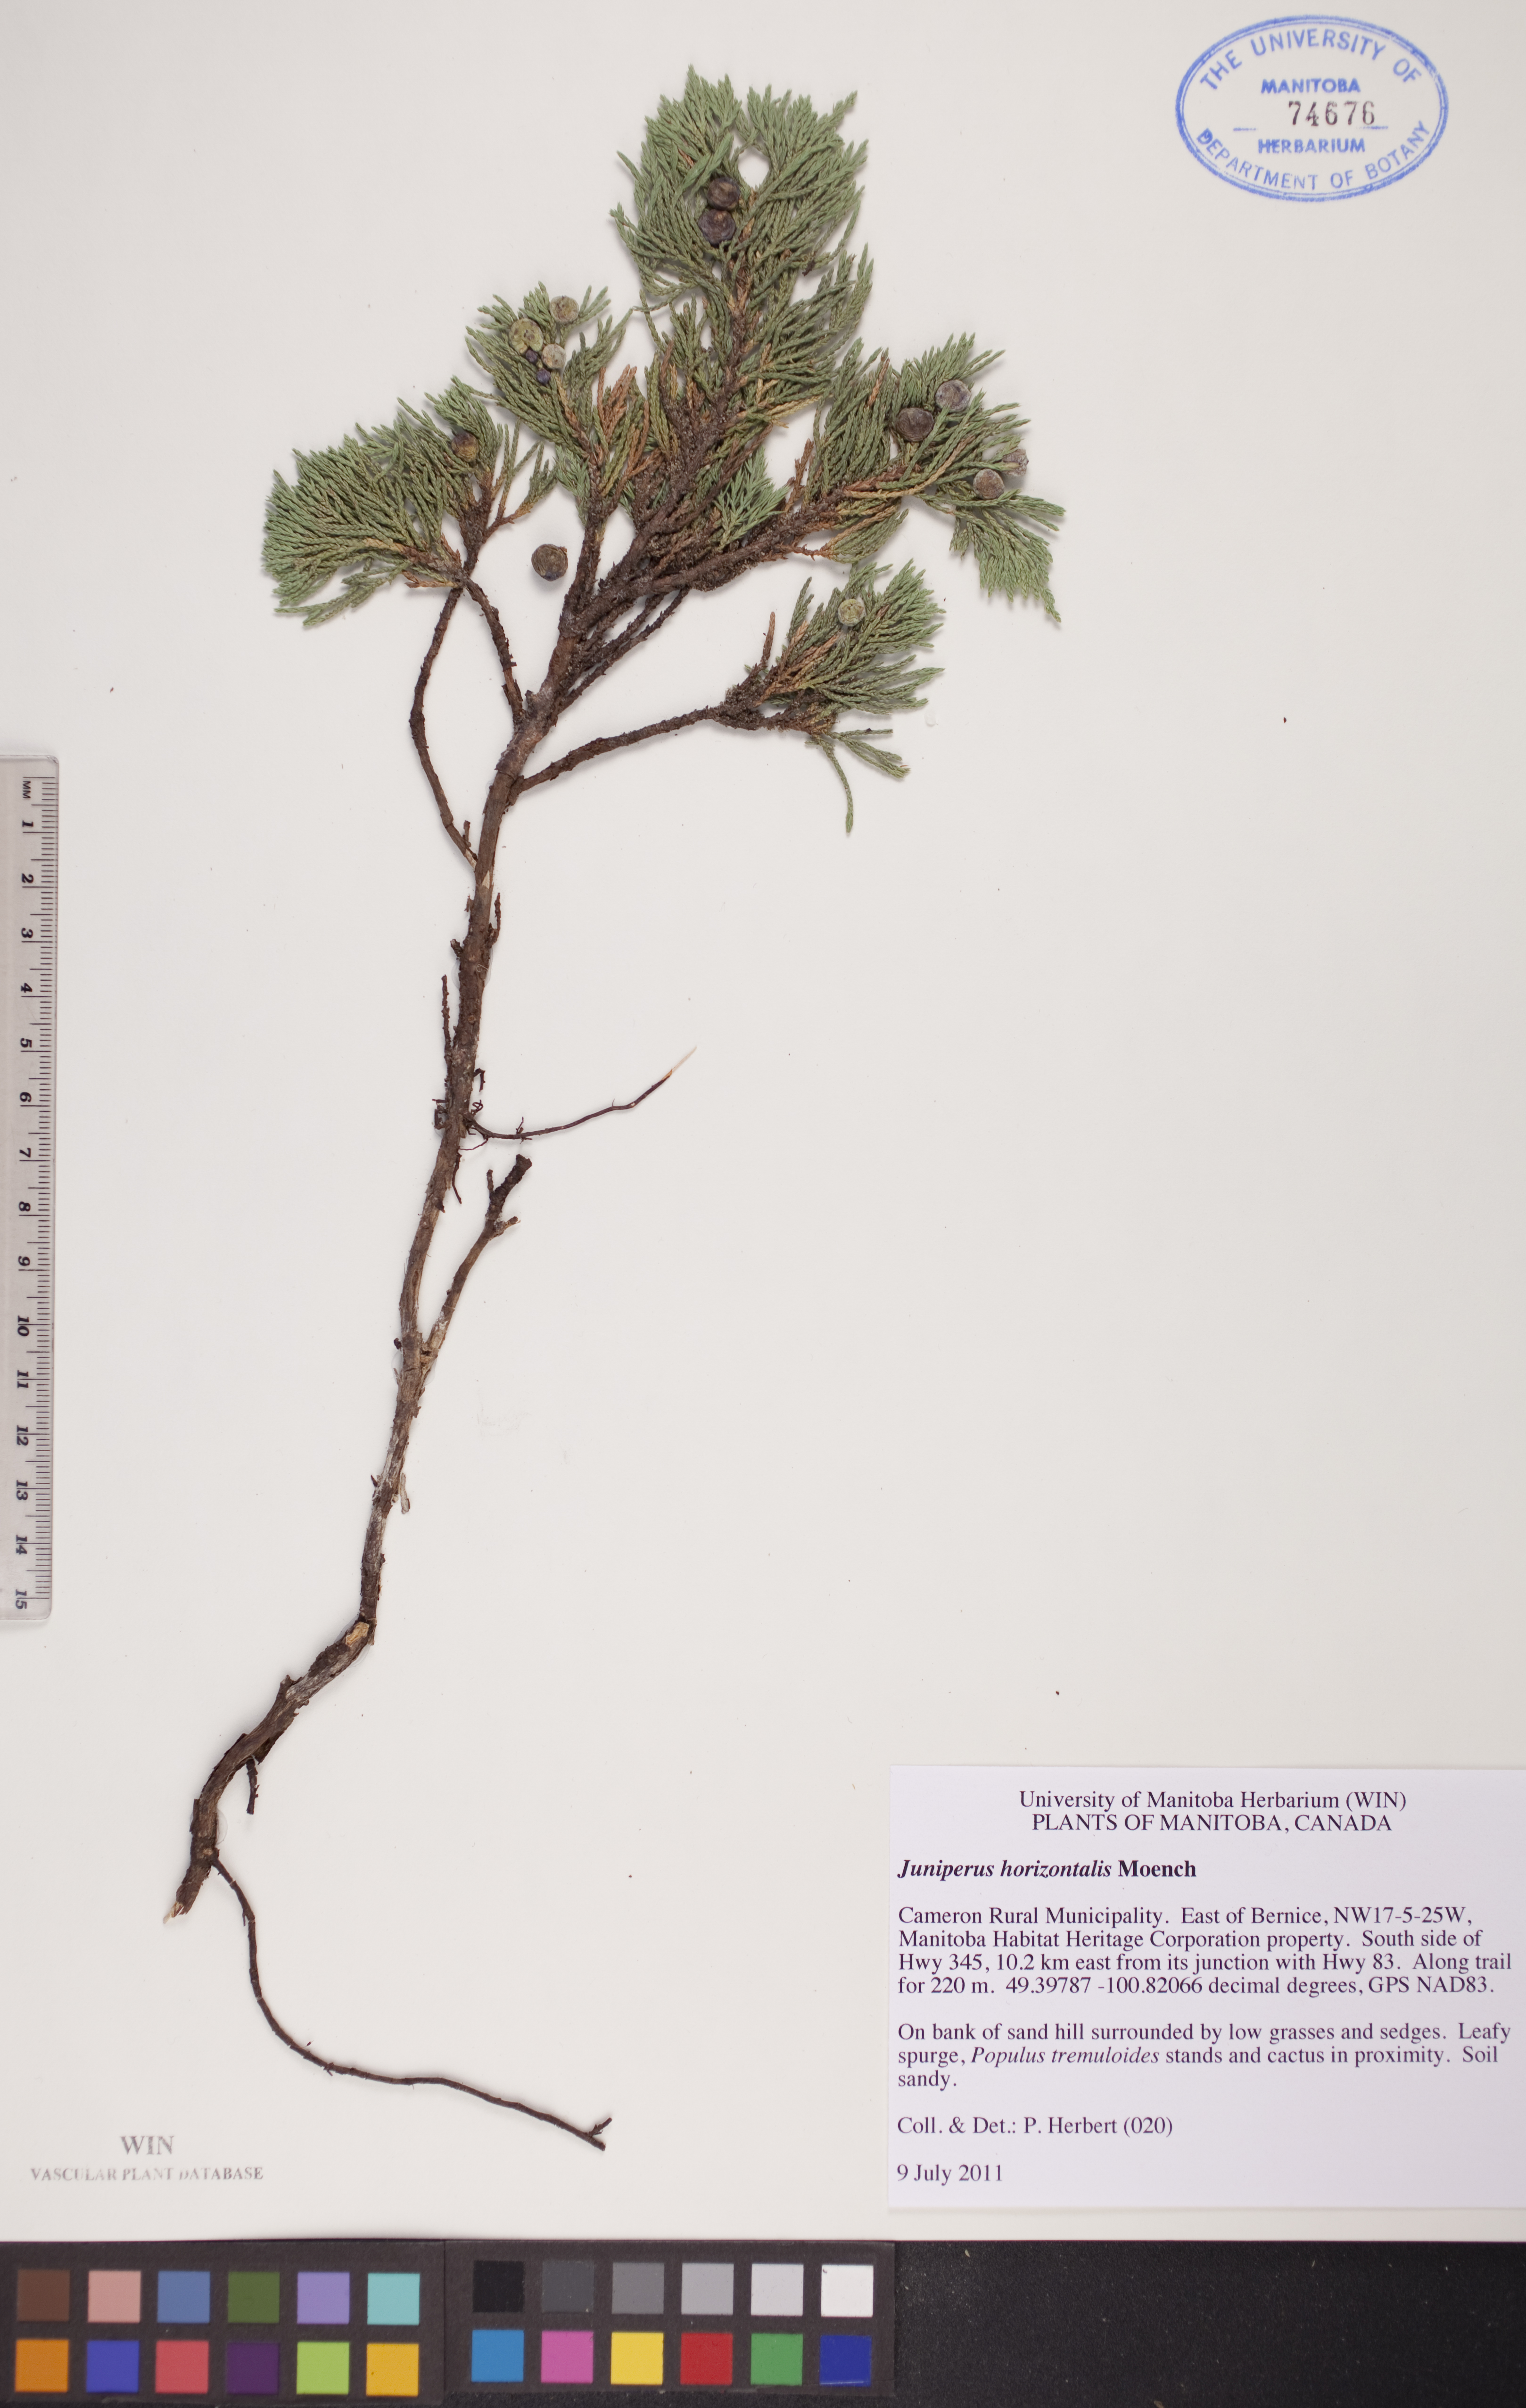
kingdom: Plantae
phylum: Tracheophyta
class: Pinopsida
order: Pinales
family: Cupressaceae
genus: Juniperus
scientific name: Juniperus horizontalis
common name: Creeping juniper
